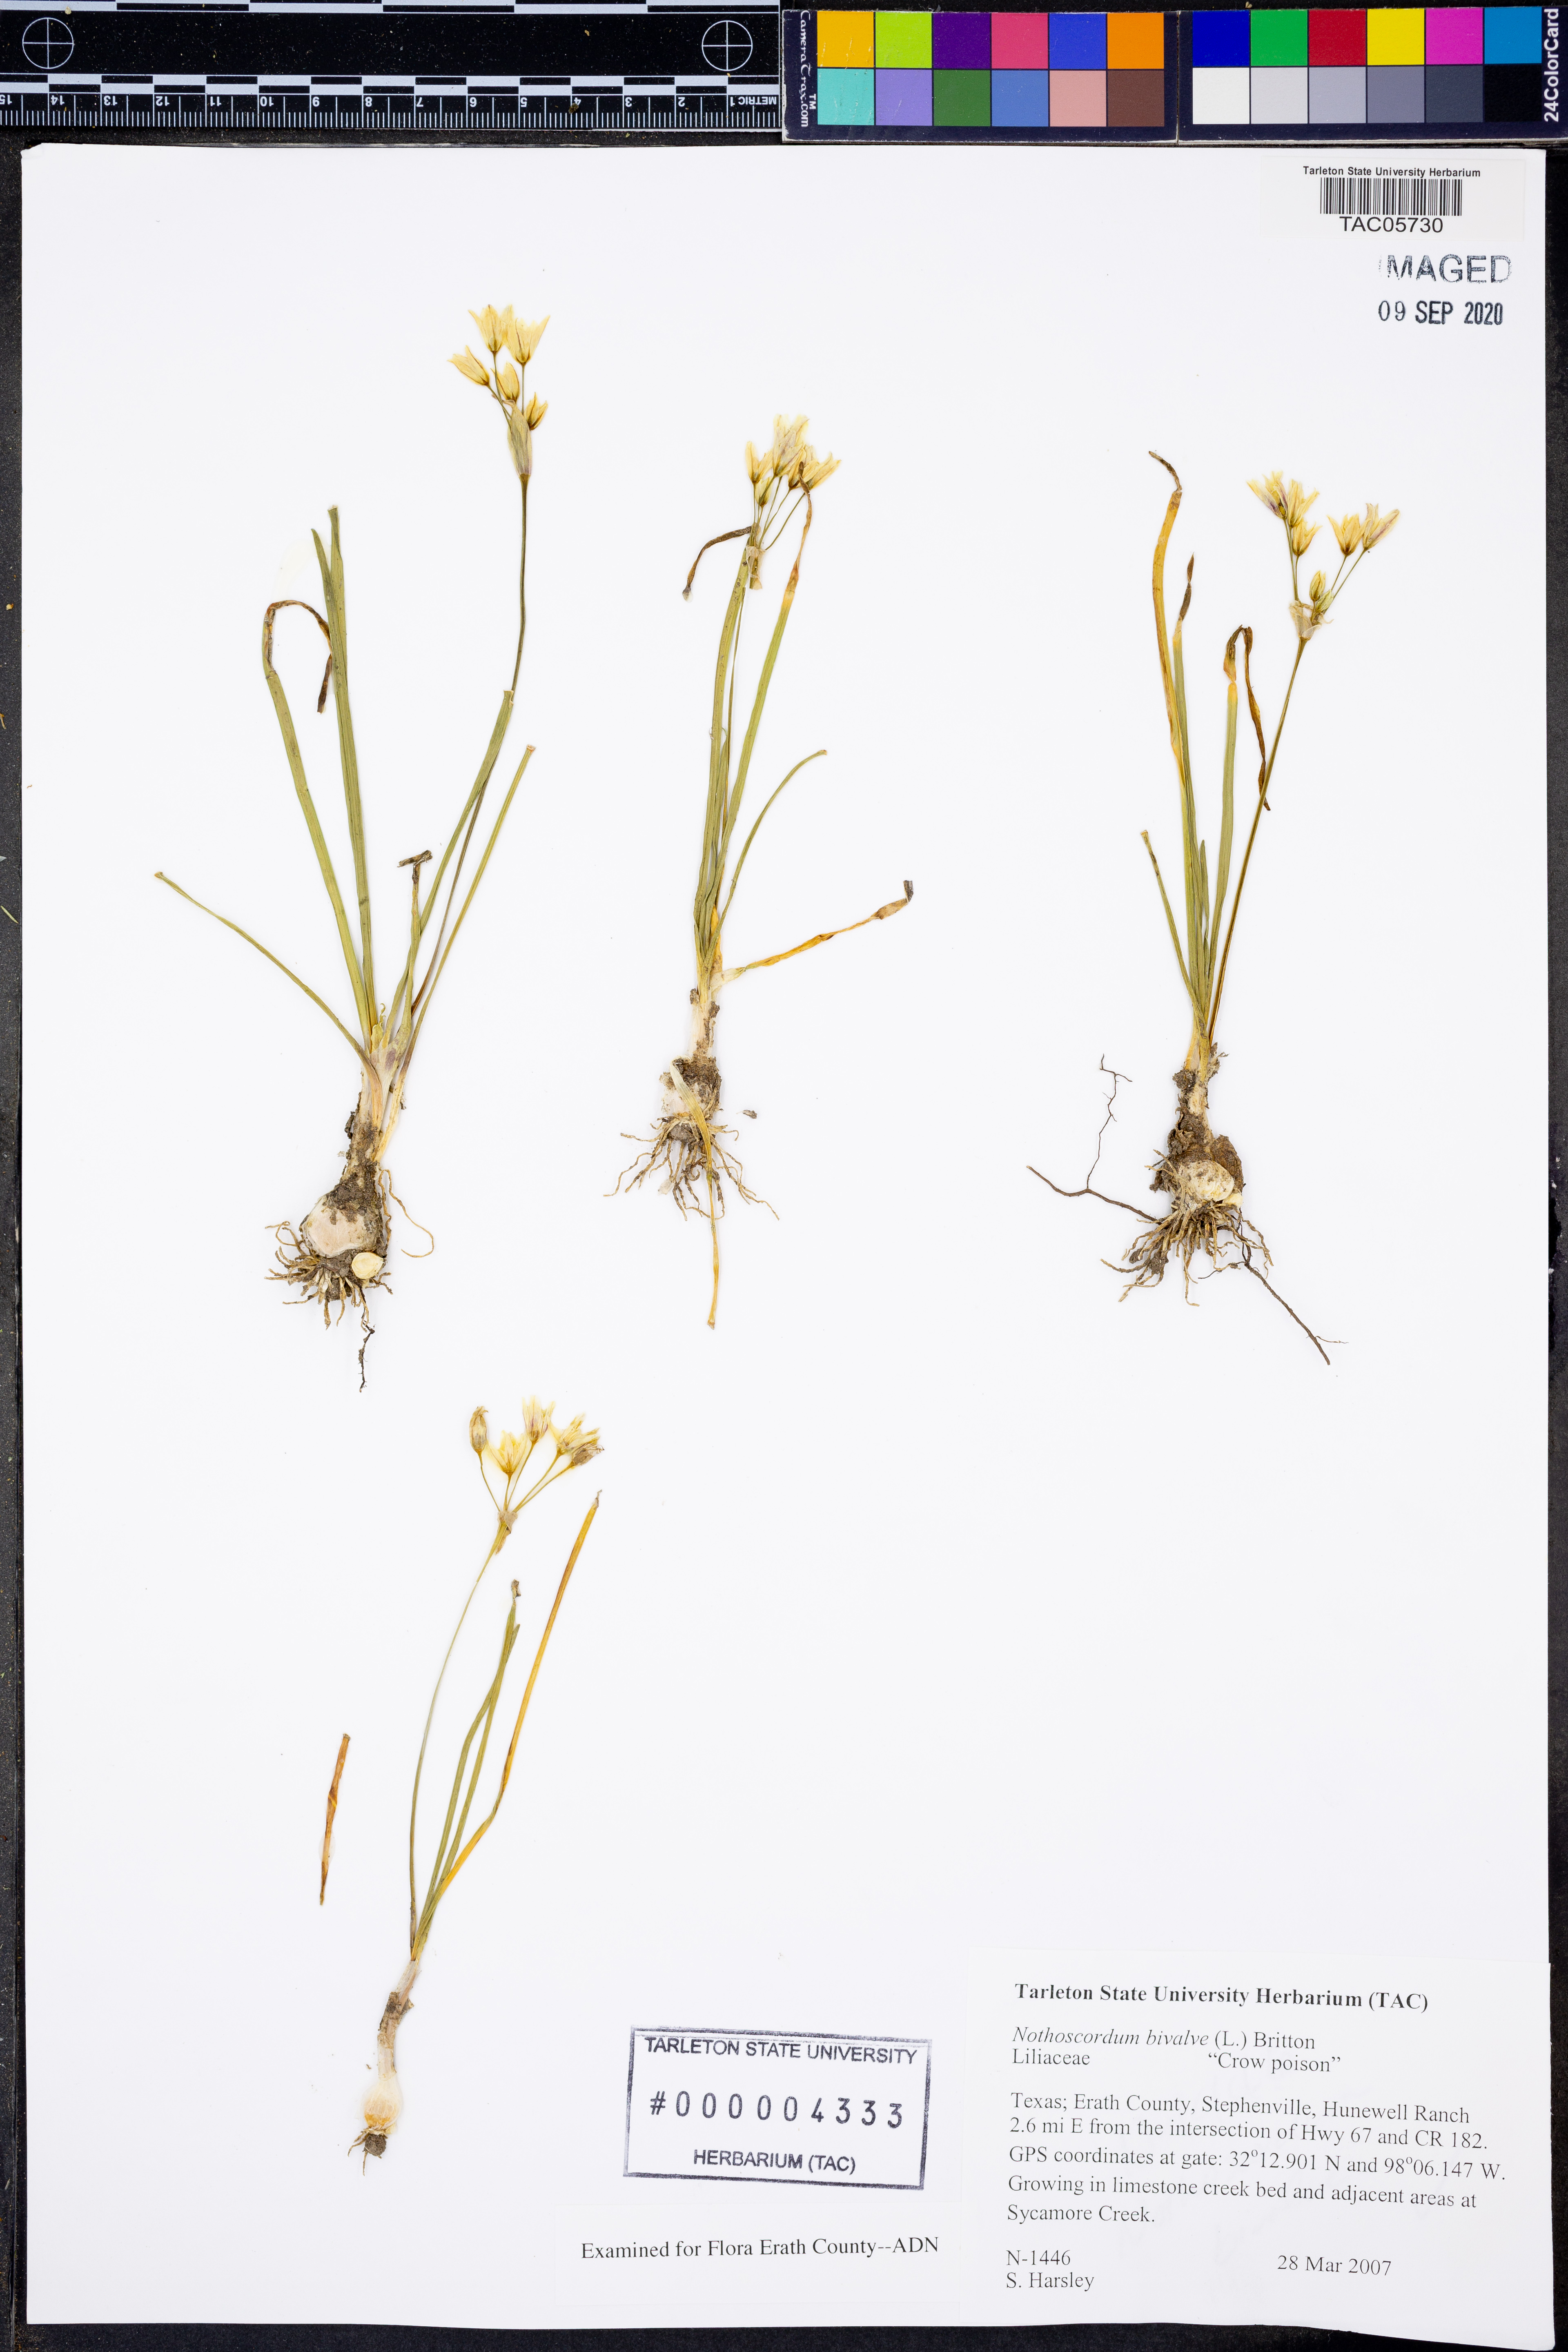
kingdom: Plantae
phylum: Tracheophyta
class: Liliopsida
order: Asparagales
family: Amaryllidaceae
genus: Nothoscordum
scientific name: Nothoscordum bivalve
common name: Crow-poison
